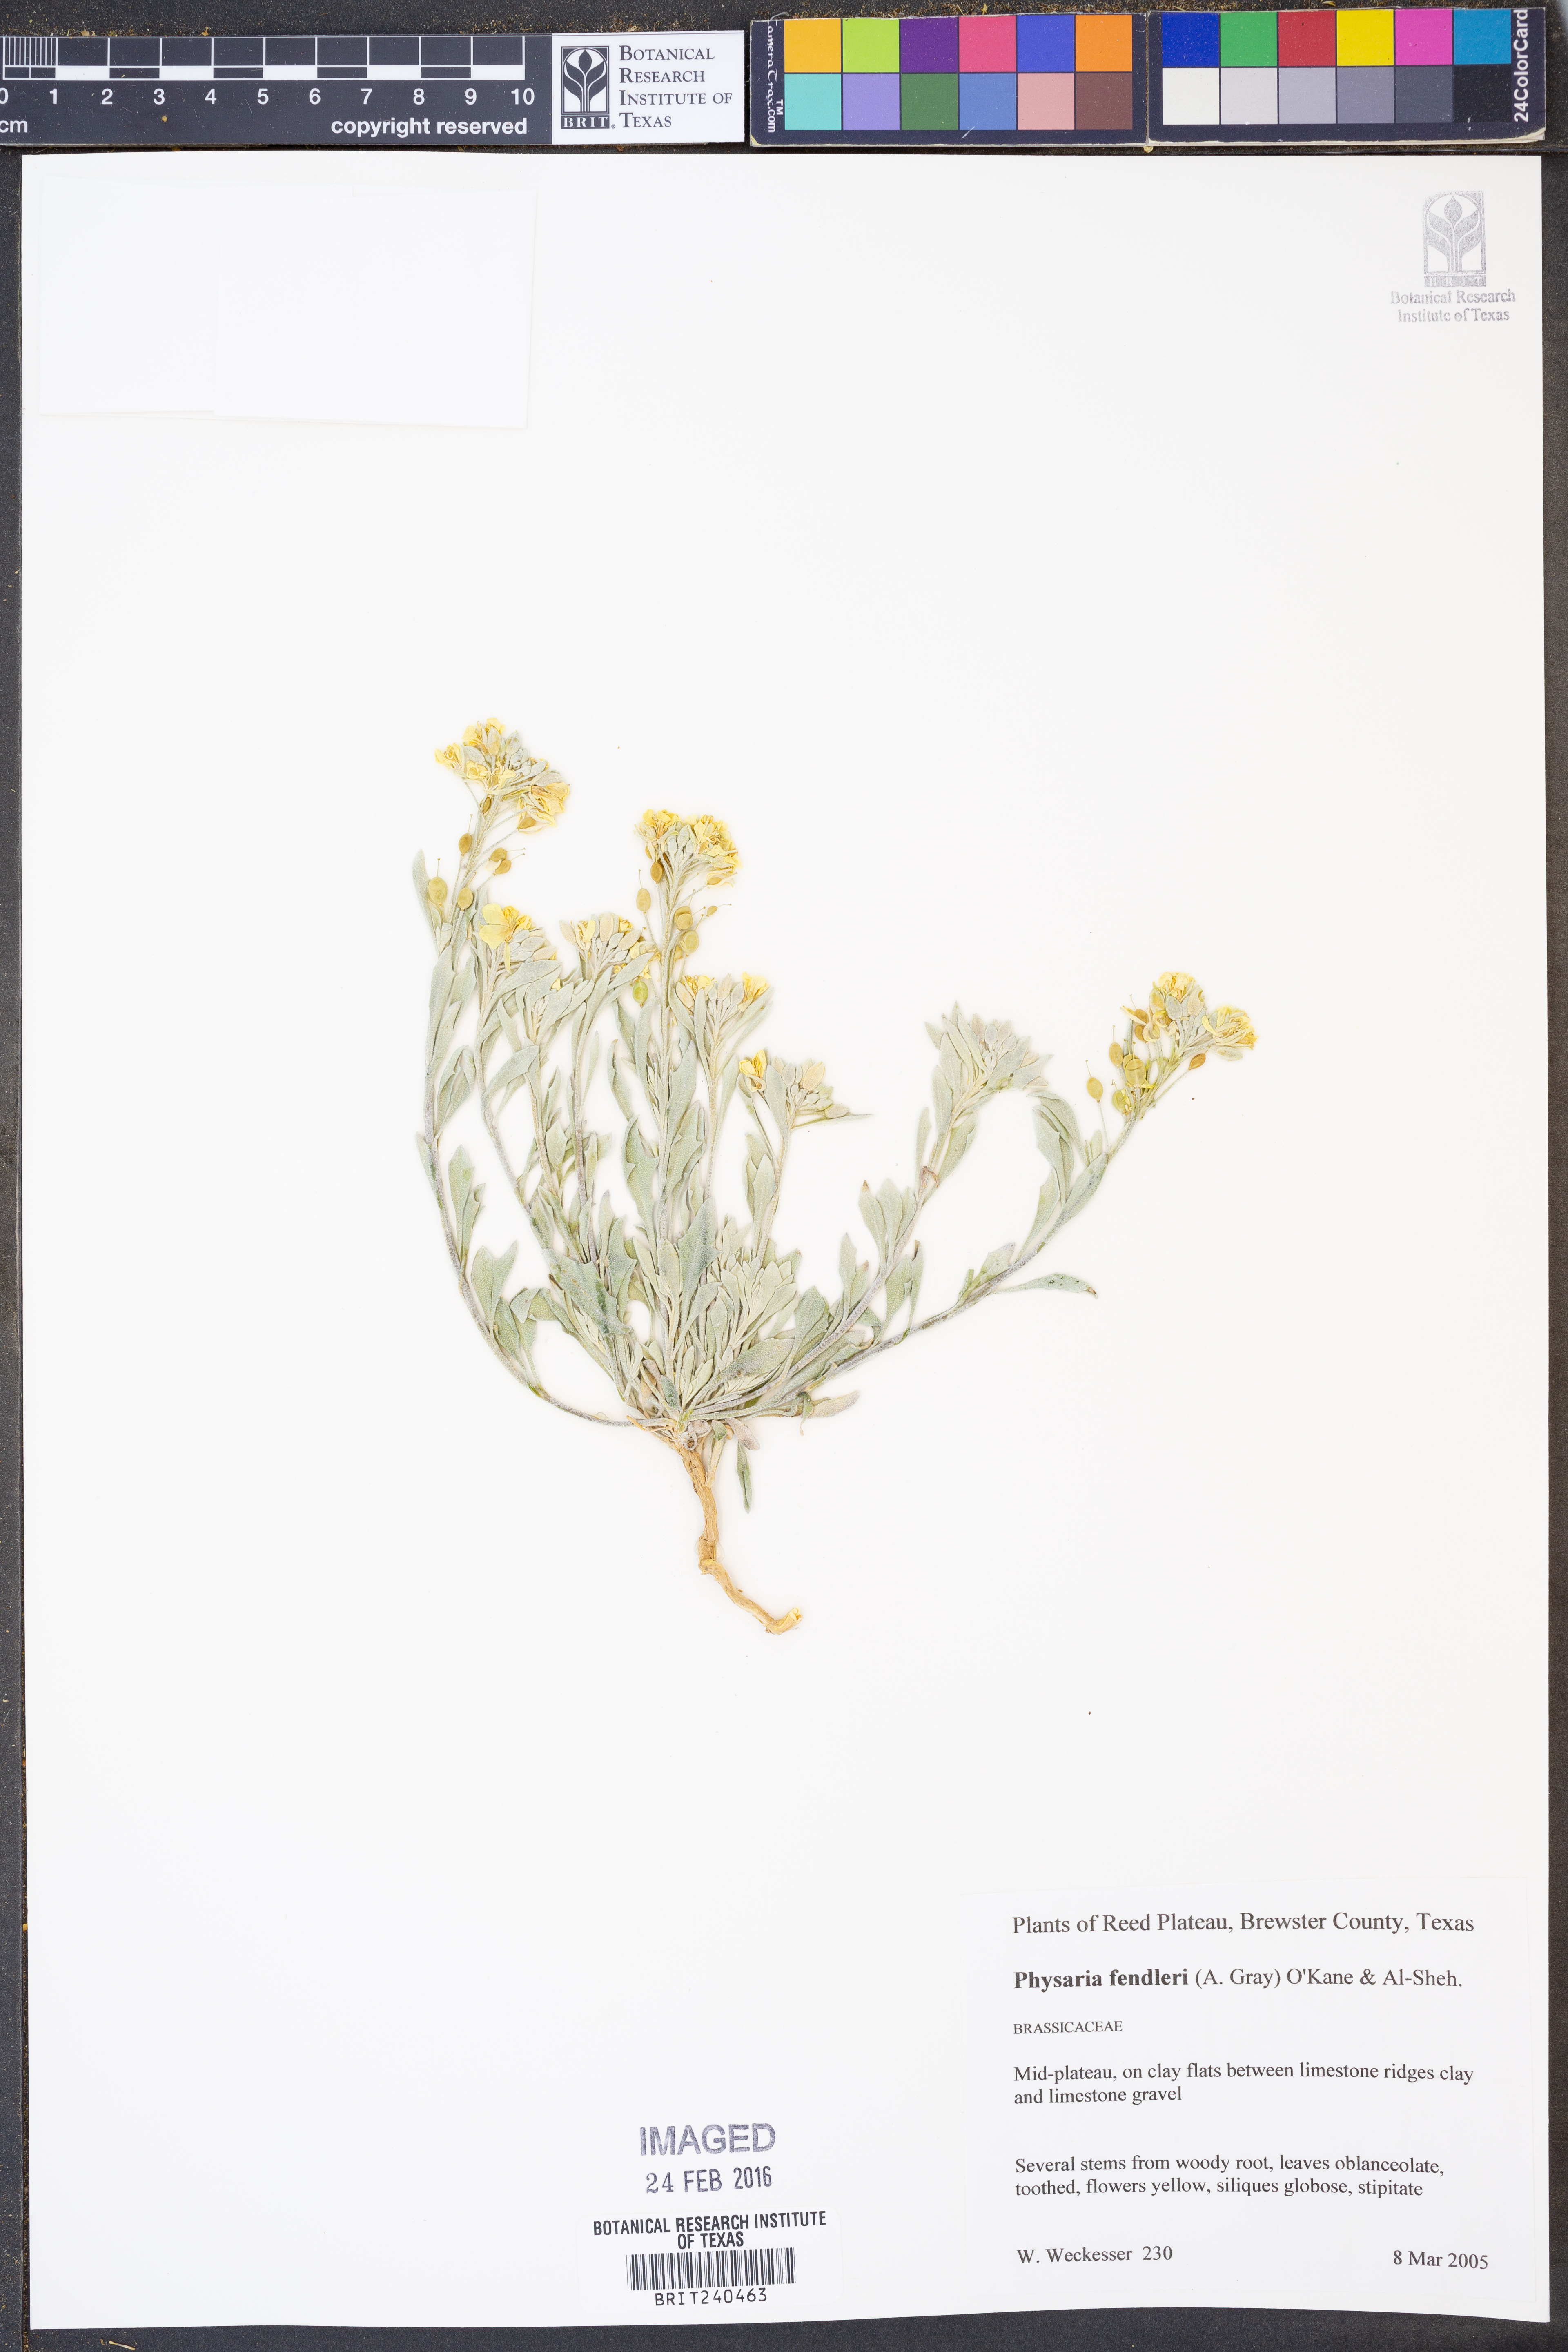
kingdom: Plantae
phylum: Tracheophyta
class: Magnoliopsida
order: Brassicales
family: Brassicaceae
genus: Physaria
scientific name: Physaria fendleri
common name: Fendler's bladderpod
